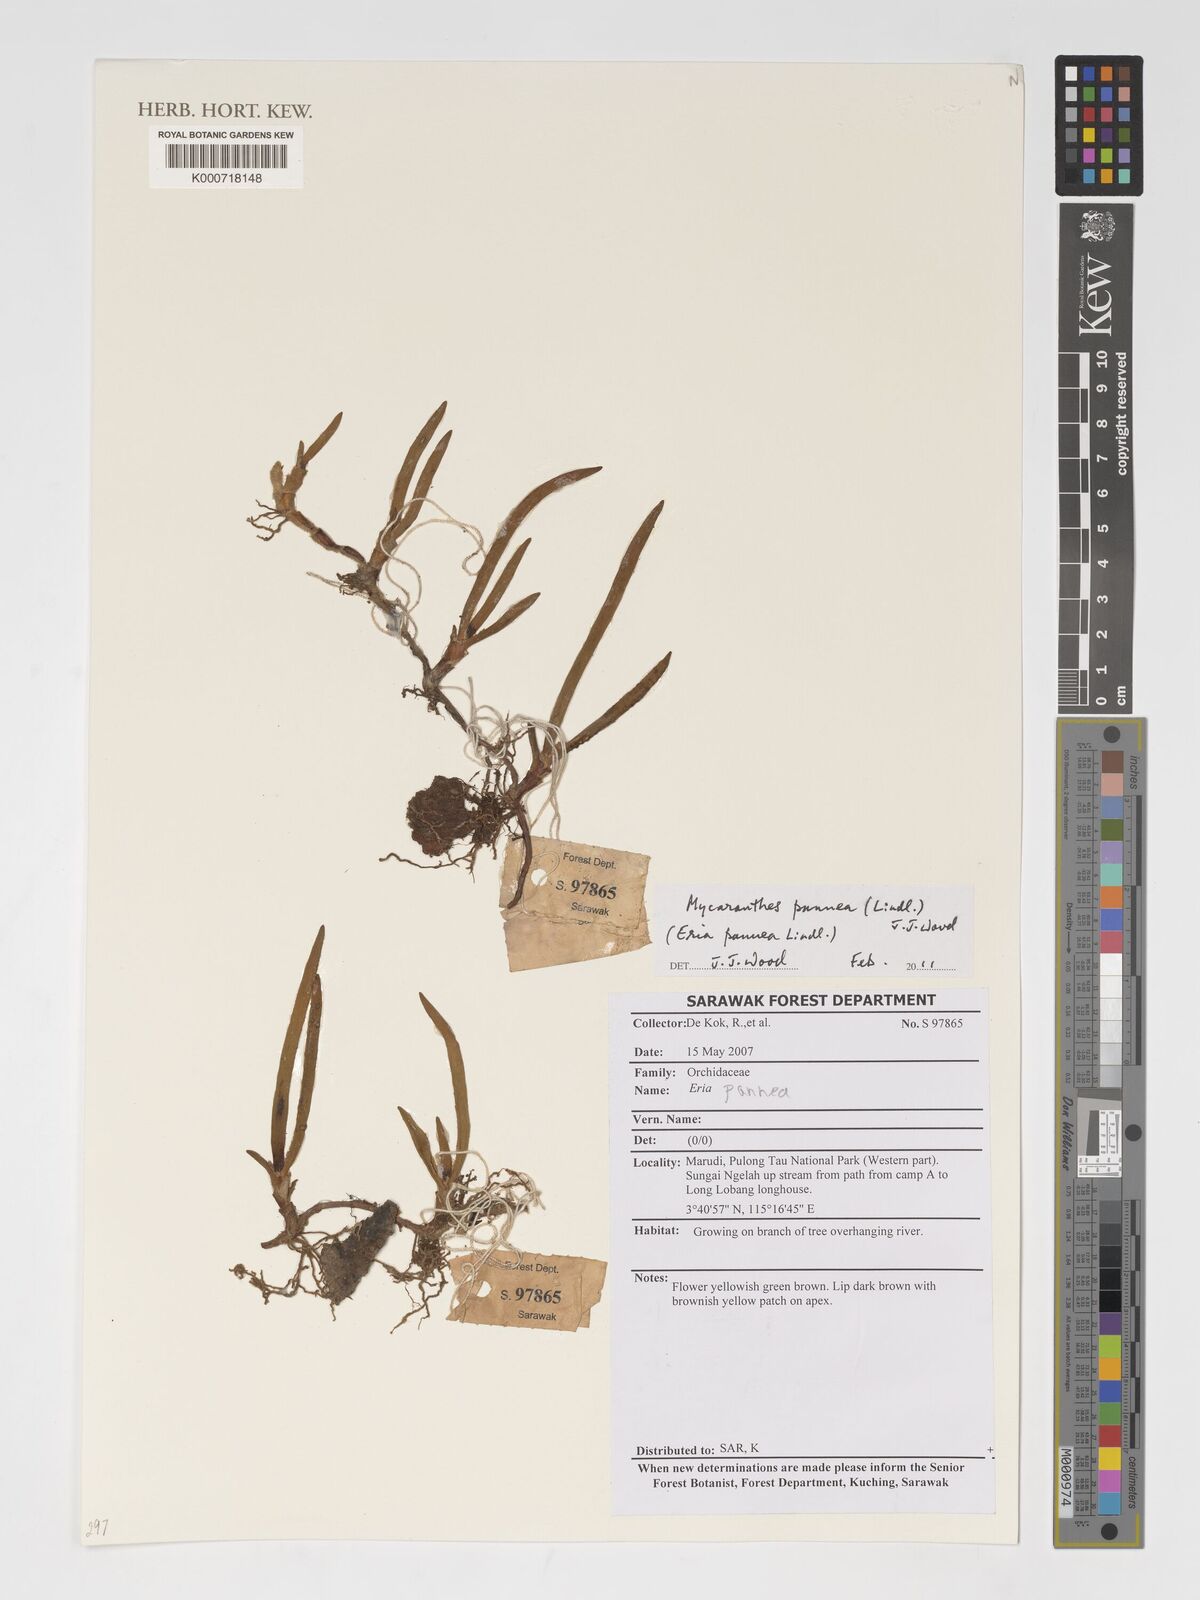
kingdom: Plantae
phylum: Tracheophyta
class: Liliopsida
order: Asparagales
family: Orchidaceae
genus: Strongyleria
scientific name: Strongyleria pannea
